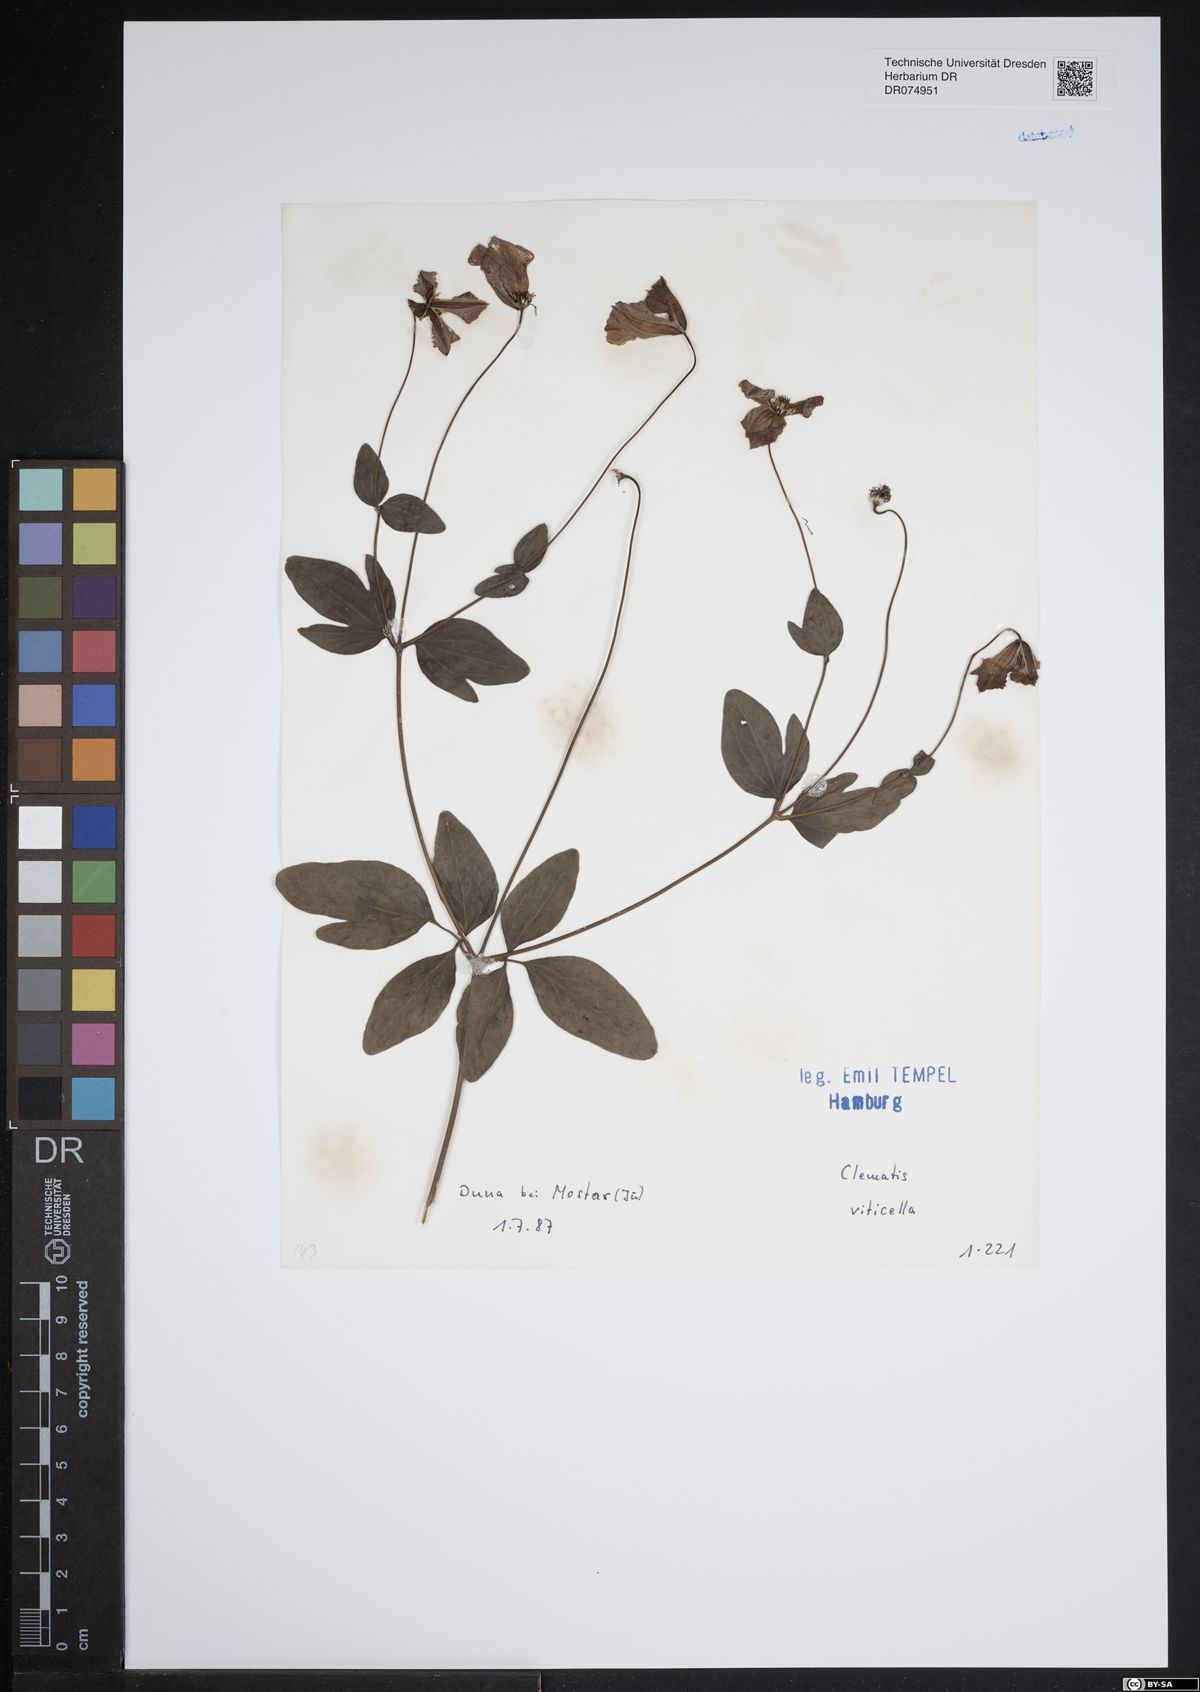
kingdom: Plantae
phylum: Tracheophyta
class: Magnoliopsida
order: Ranunculales
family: Ranunculaceae
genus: Clematis
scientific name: Clematis viticella
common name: Purple clematis
